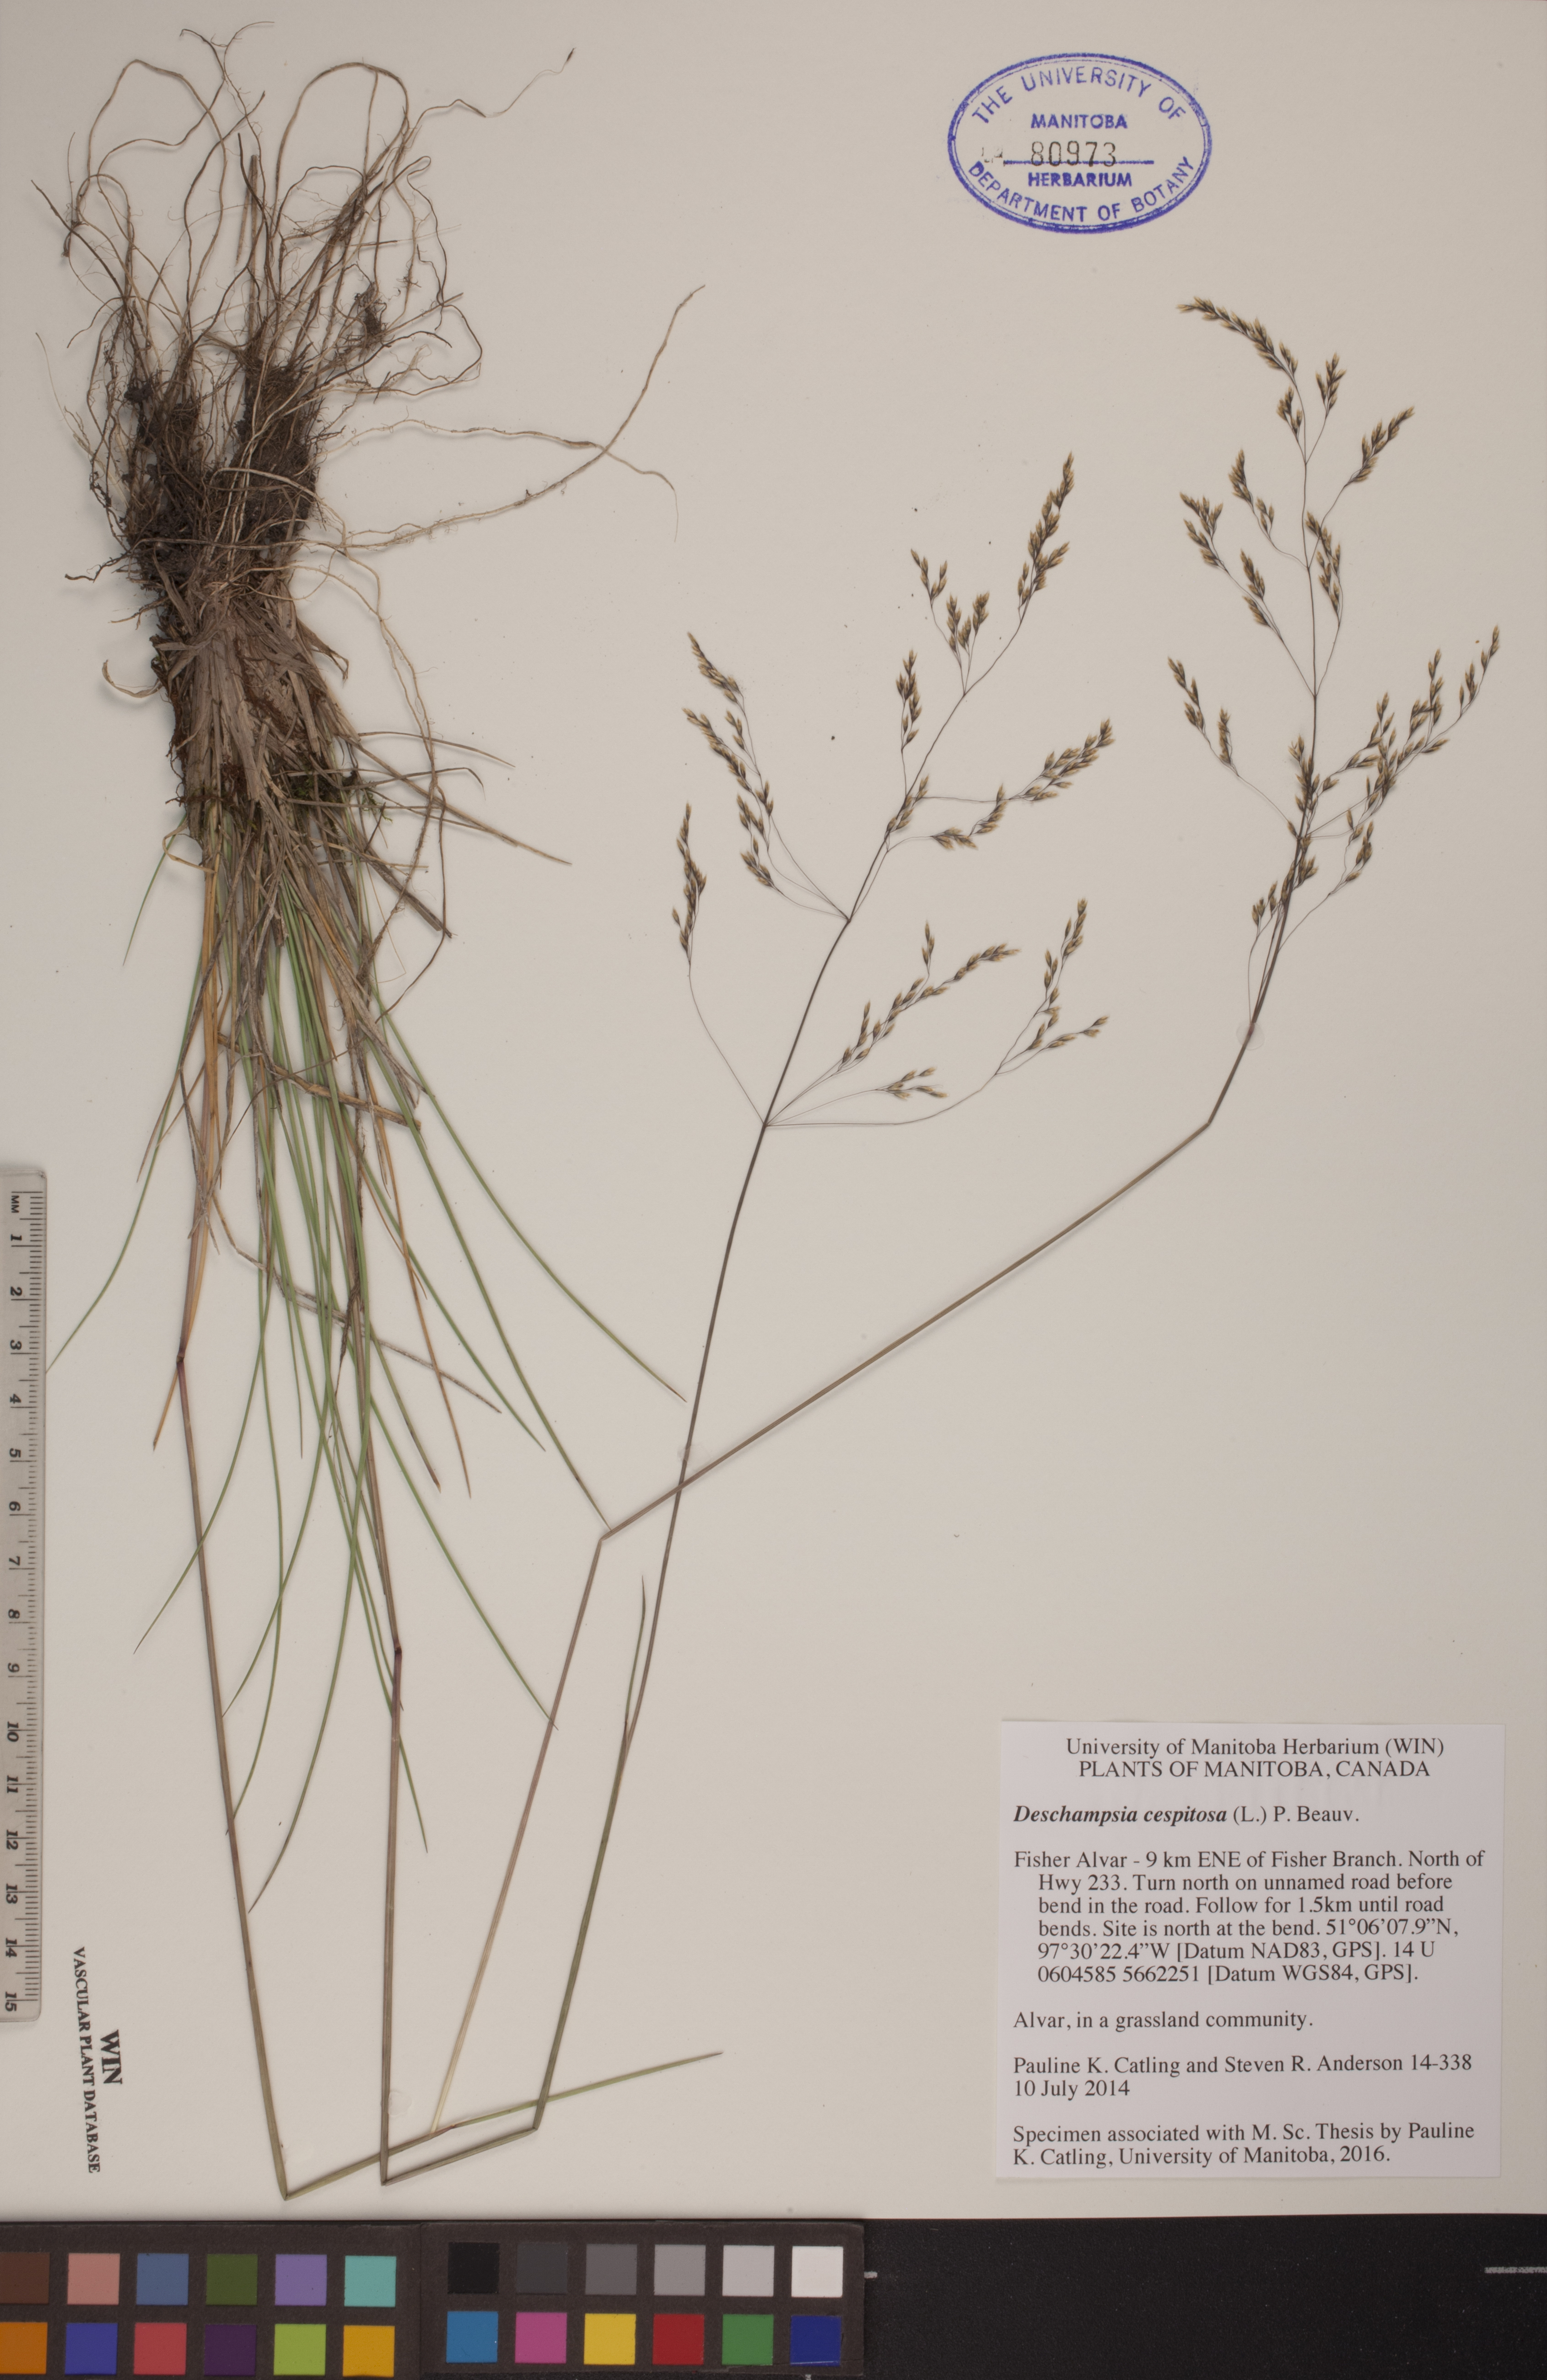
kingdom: Plantae
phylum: Tracheophyta
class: Liliopsida
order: Poales
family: Poaceae
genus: Deschampsia
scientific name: Deschampsia cespitosa
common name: Tufted hair-grass
